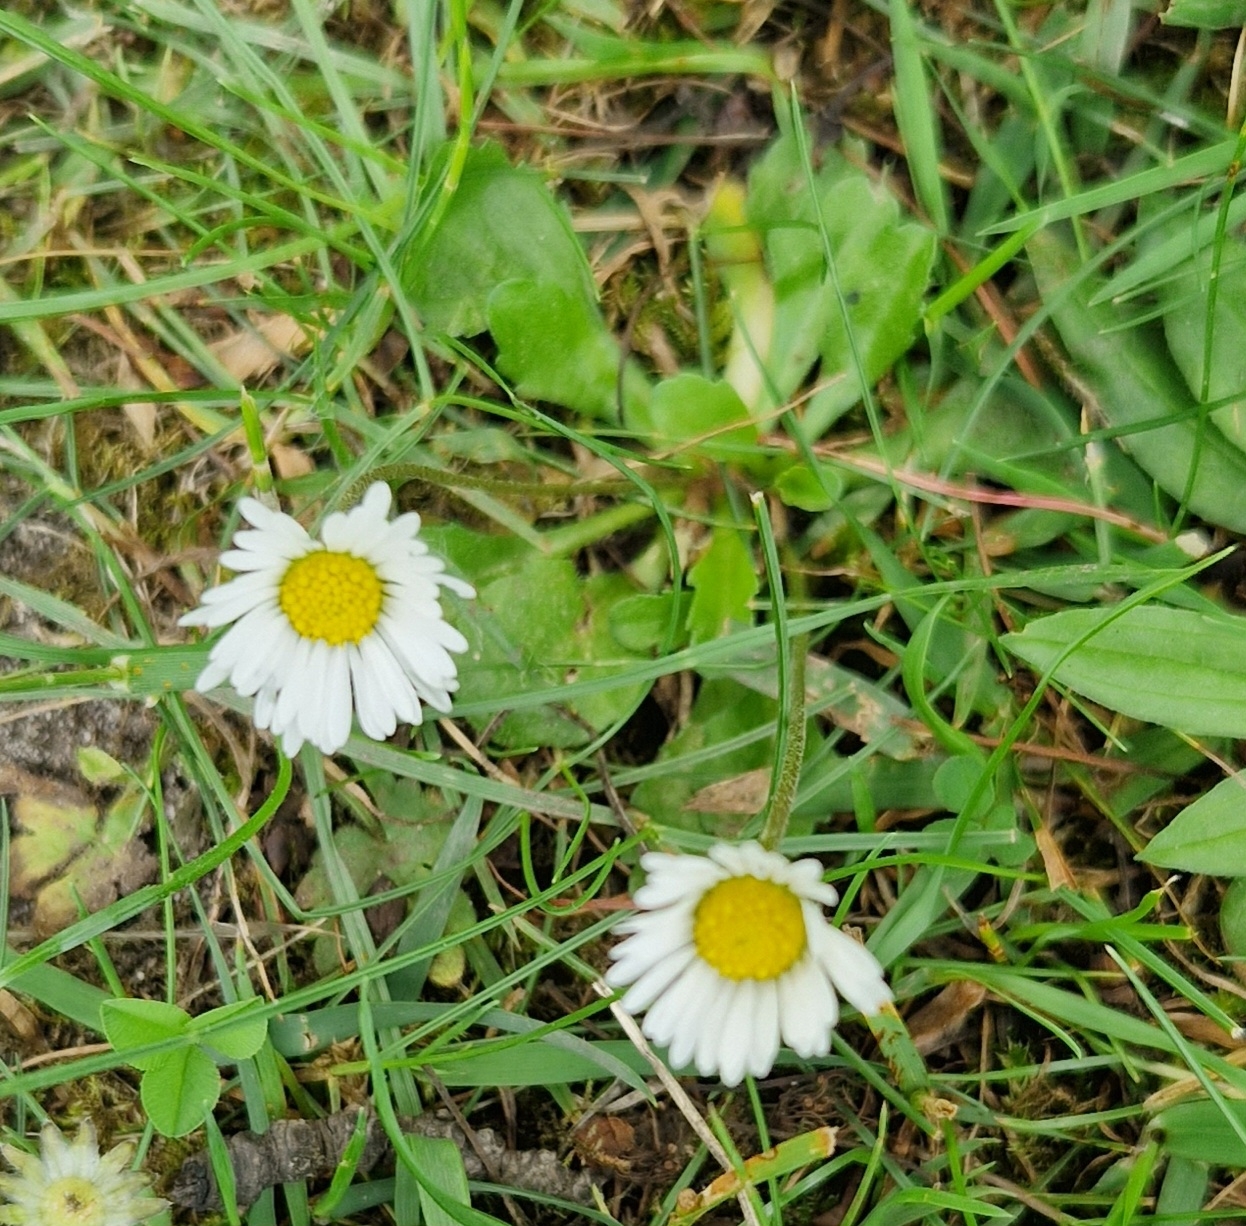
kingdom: Plantae
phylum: Tracheophyta
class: Magnoliopsida
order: Asterales
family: Asteraceae
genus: Bellis
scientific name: Bellis perennis
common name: Tusindfryd
